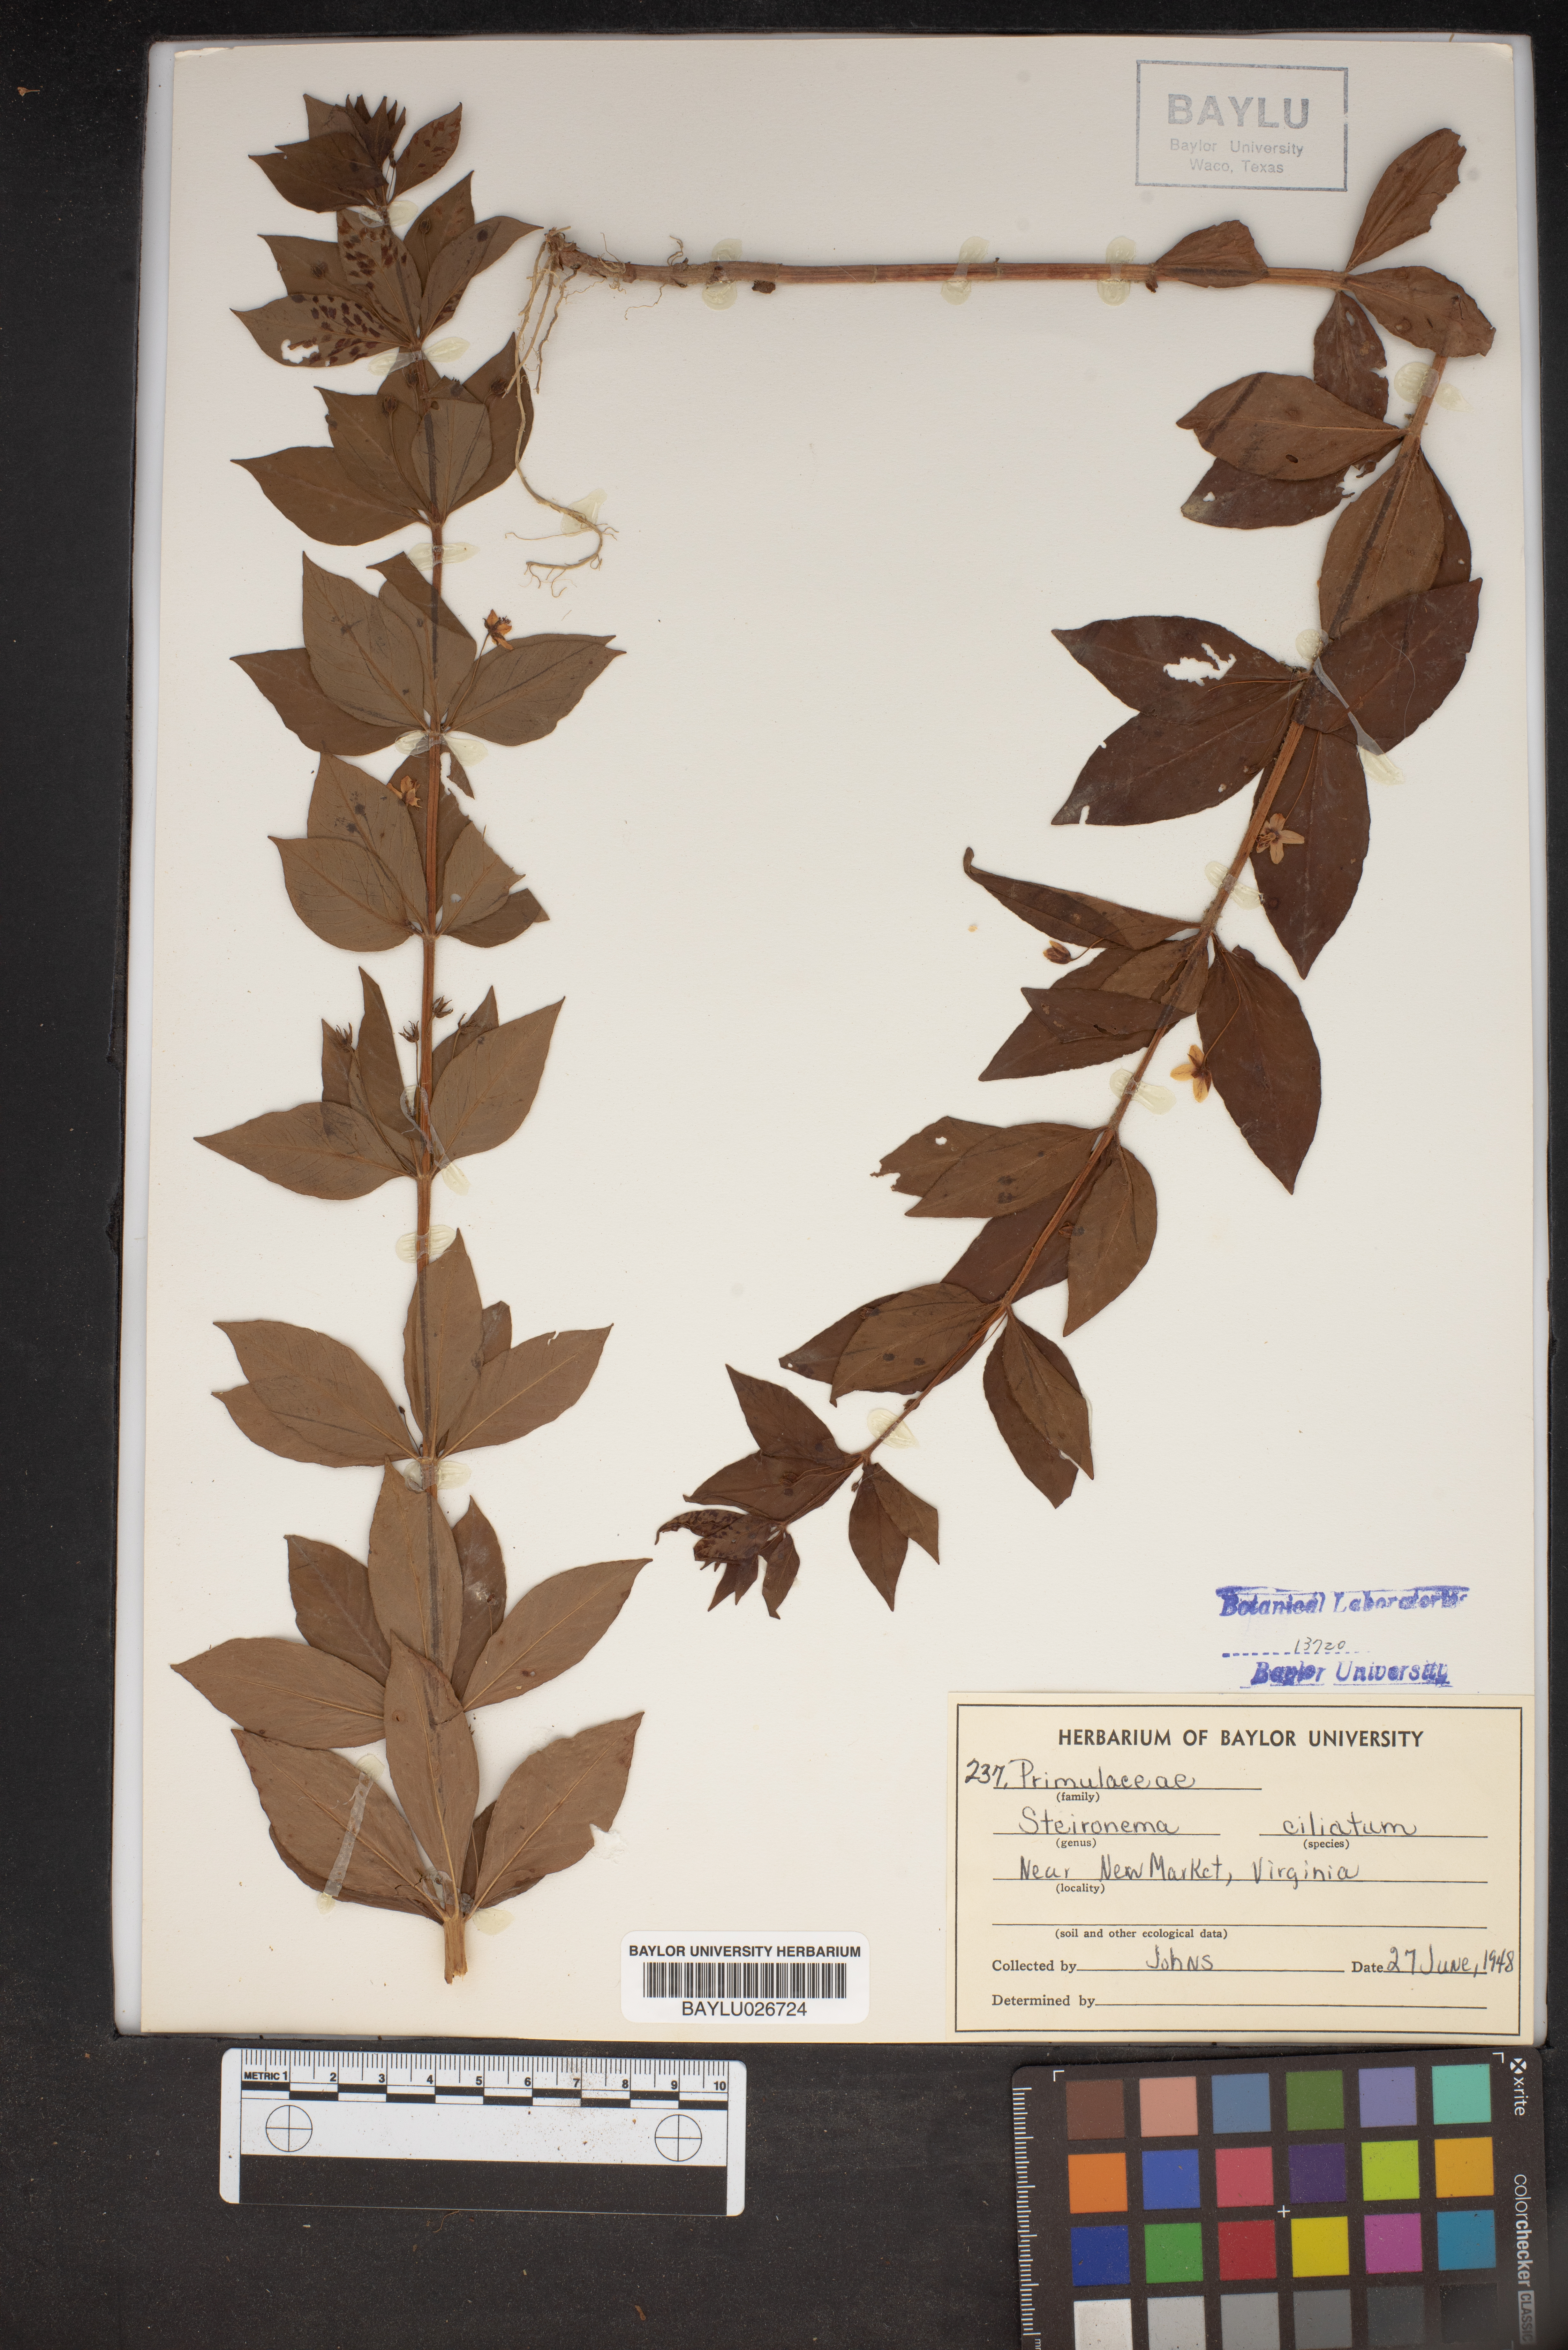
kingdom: Plantae
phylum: Tracheophyta
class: Magnoliopsida
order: Ericales
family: Primulaceae
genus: Lysimachia
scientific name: Lysimachia ciliata
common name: Fringed loosestrife
